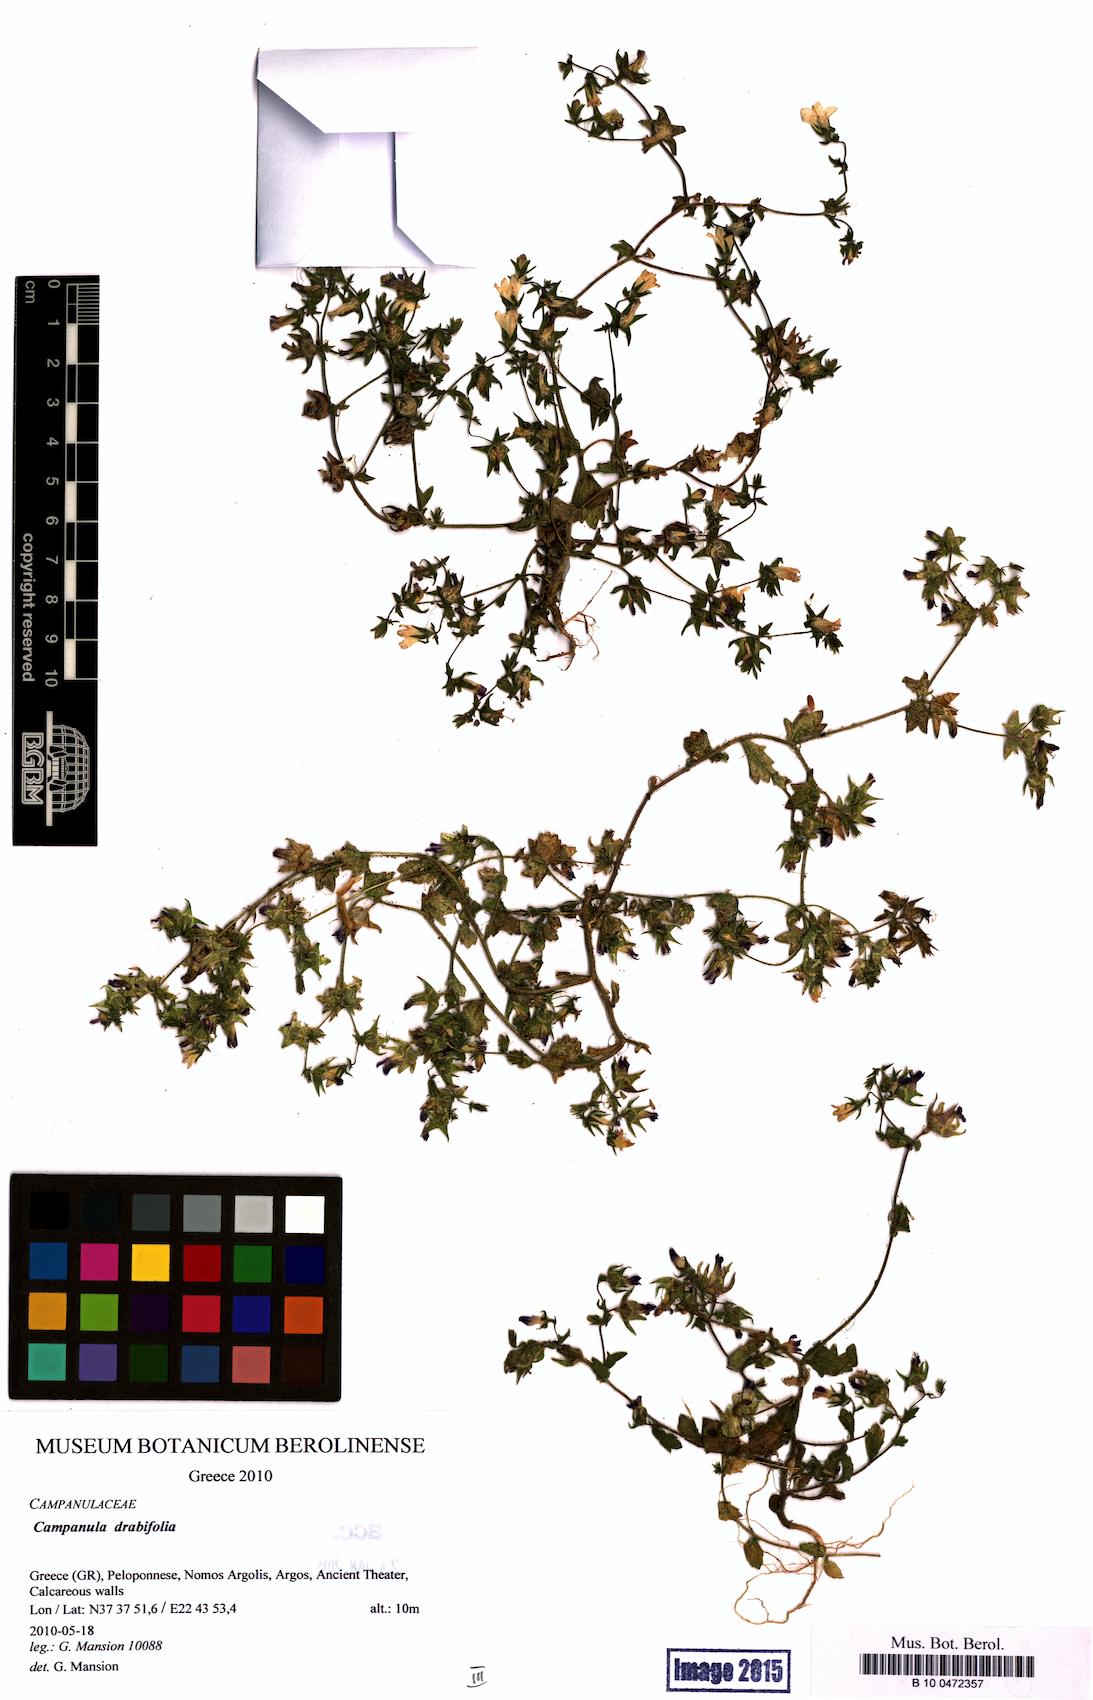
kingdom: Plantae
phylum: Tracheophyta
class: Magnoliopsida
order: Asterales
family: Campanulaceae
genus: Campanula
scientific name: Campanula drabifolia
